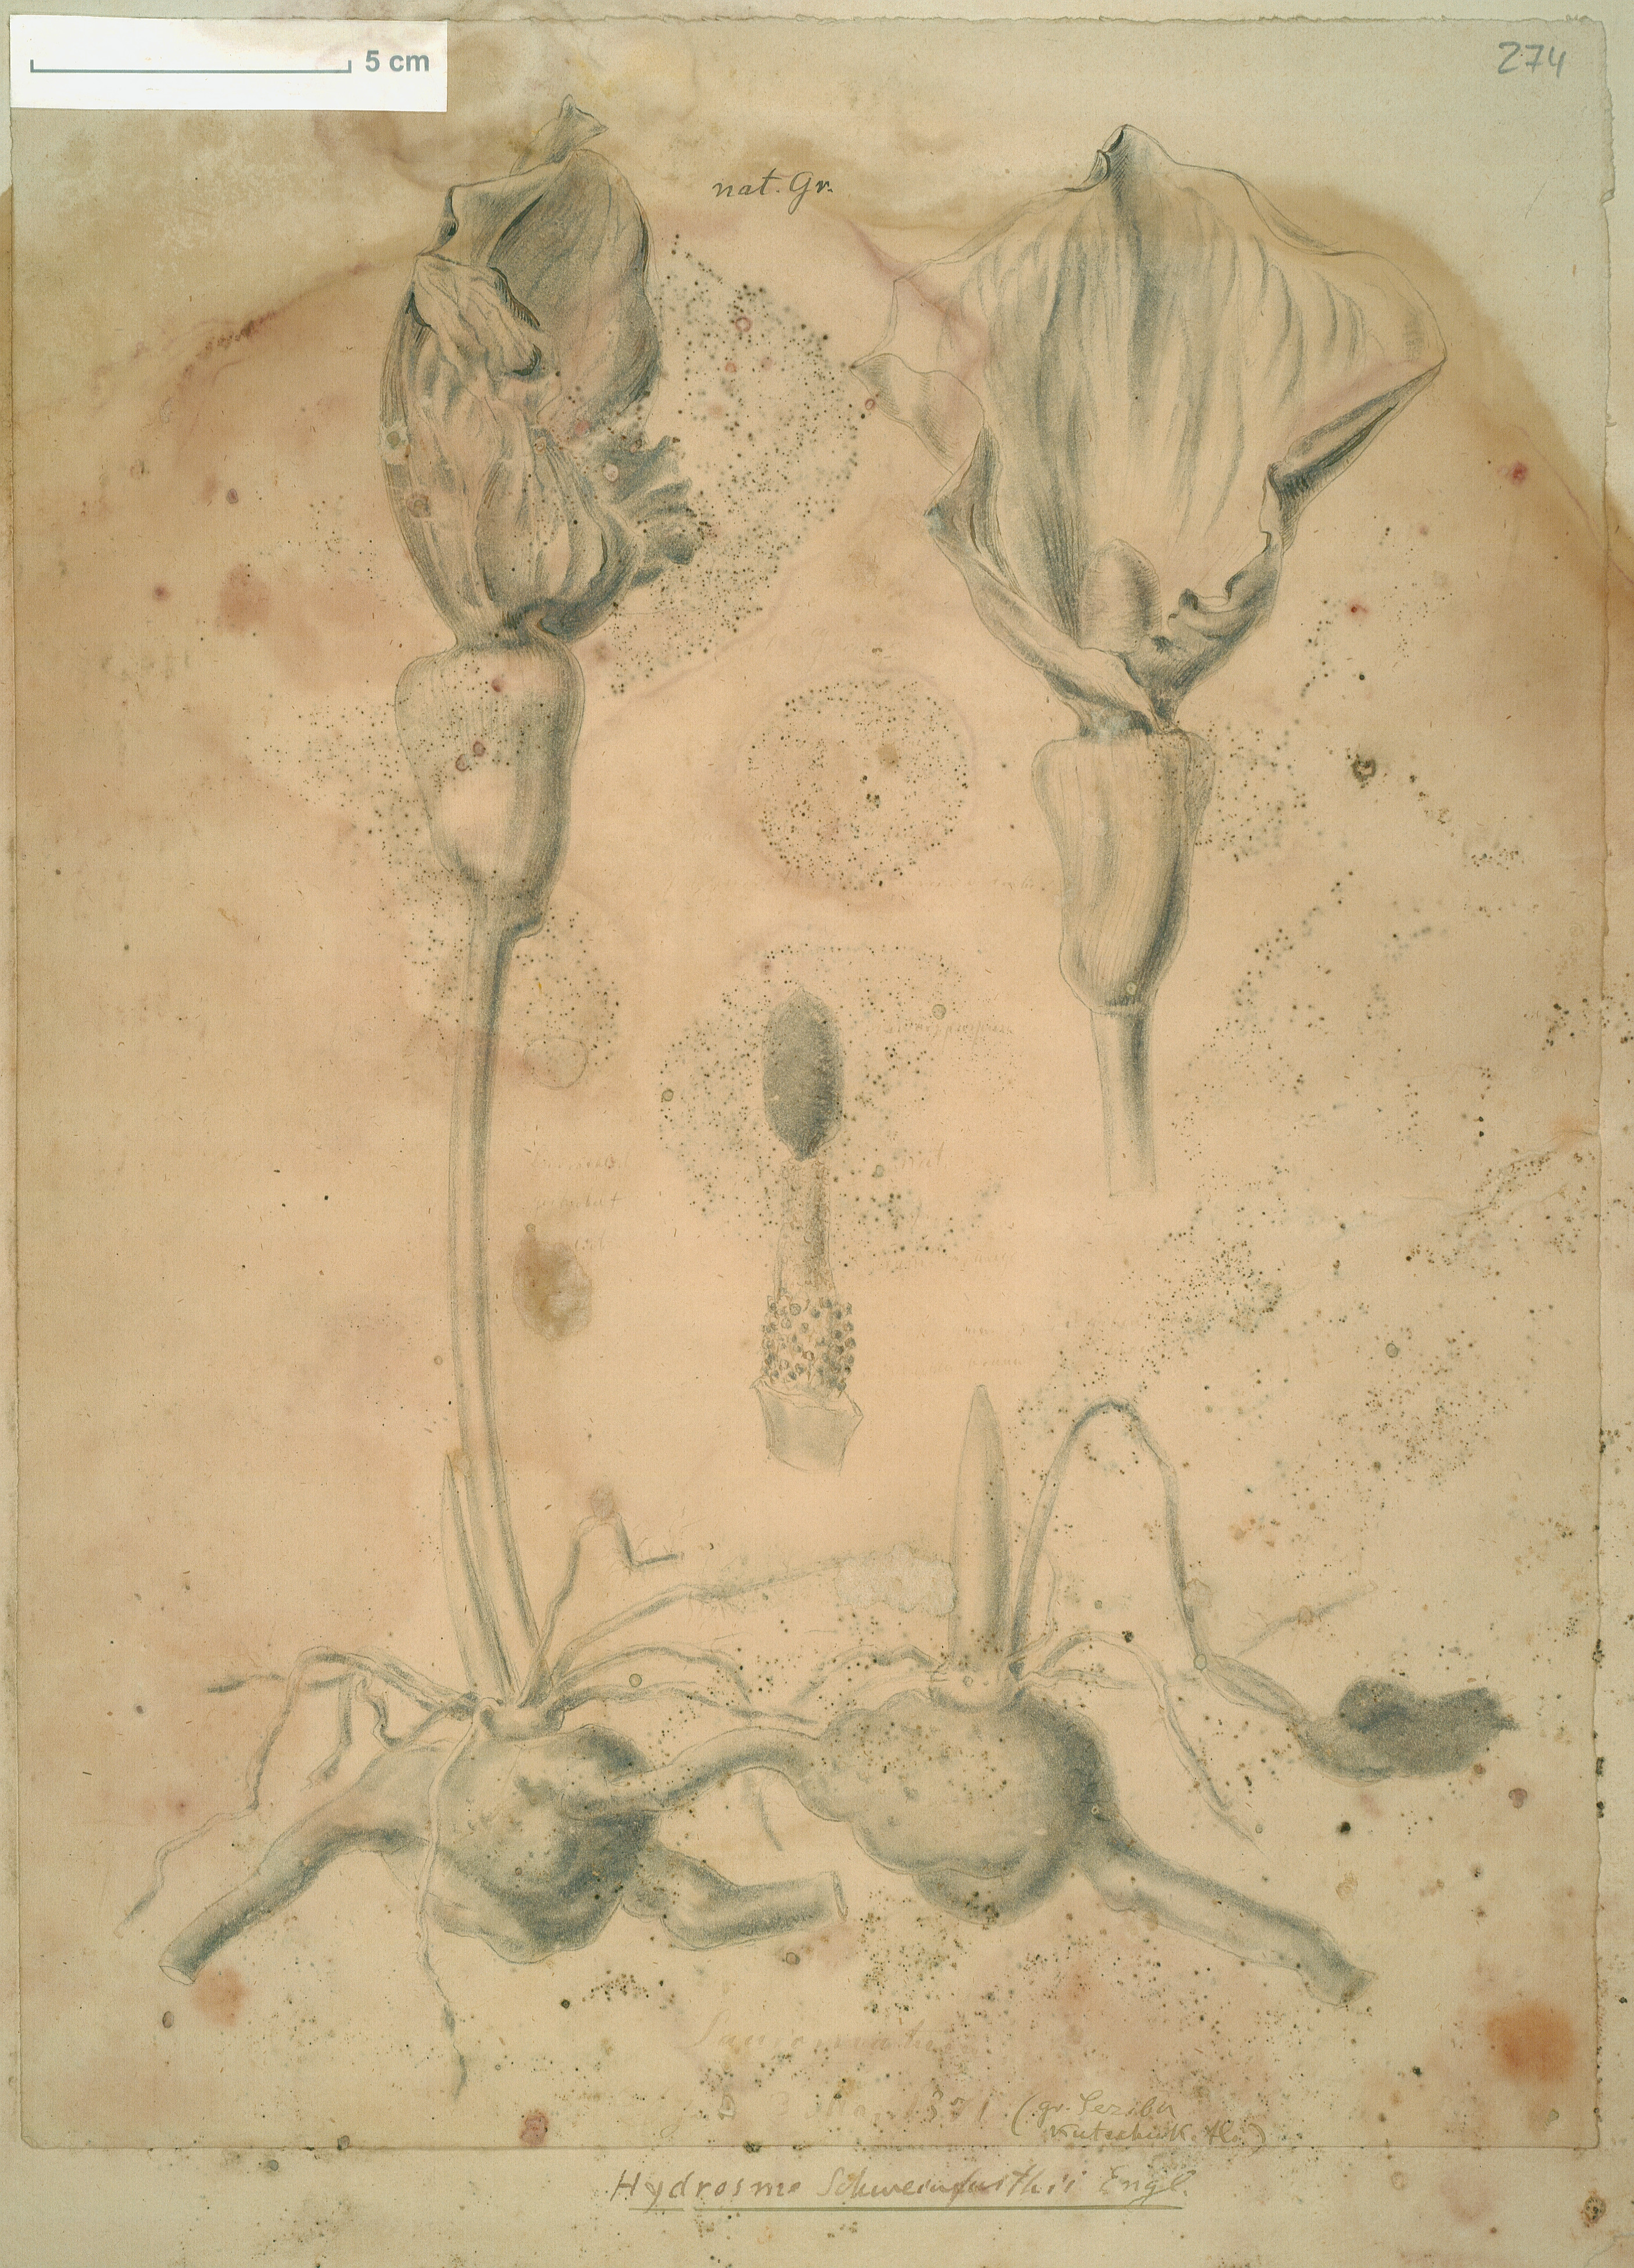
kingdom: Plantae
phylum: Tracheophyta
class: Liliopsida
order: Alismatales
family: Araceae
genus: Amorphophallus
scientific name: Amorphophallus abyssinicus
